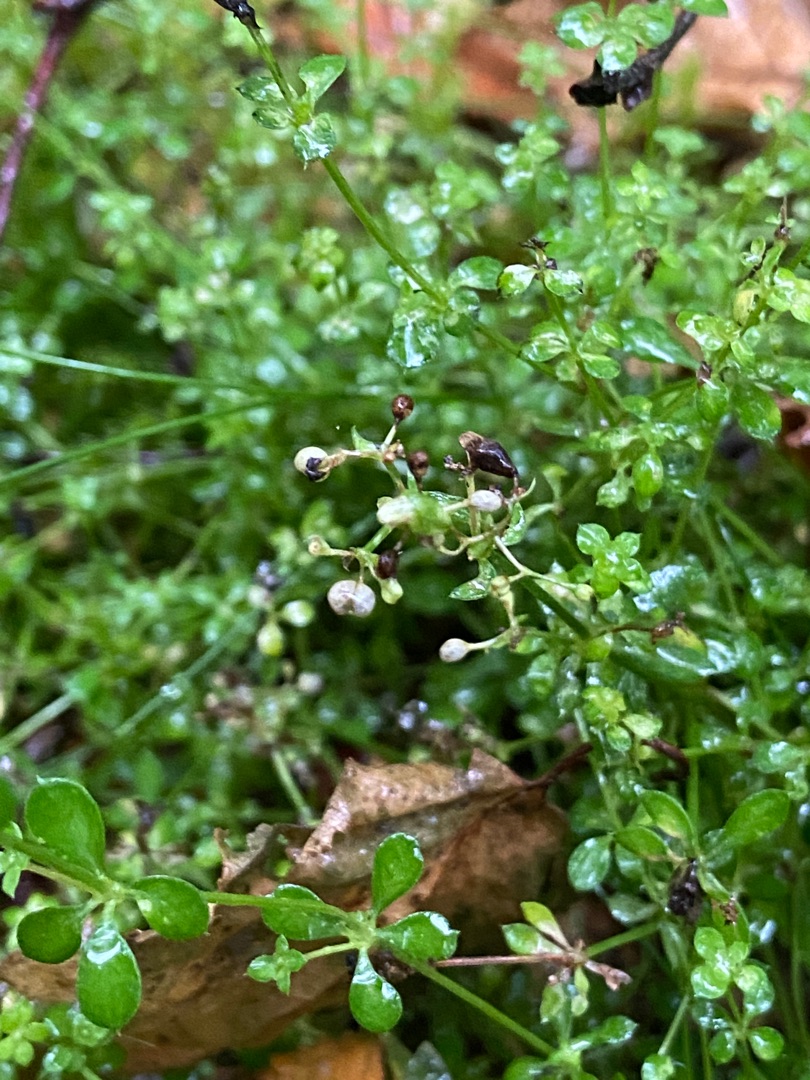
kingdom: Plantae
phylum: Tracheophyta
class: Magnoliopsida
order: Gentianales
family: Rubiaceae
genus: Galium
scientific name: Galium saxatile
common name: Lyng-snerre
